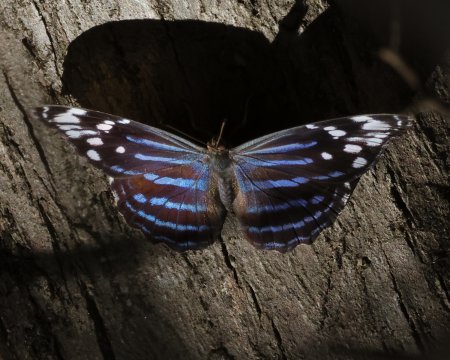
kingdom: Animalia
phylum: Arthropoda
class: Insecta
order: Lepidoptera
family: Nymphalidae
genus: Myscelia
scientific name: Myscelia ethusa
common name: Mexican Bluewing
